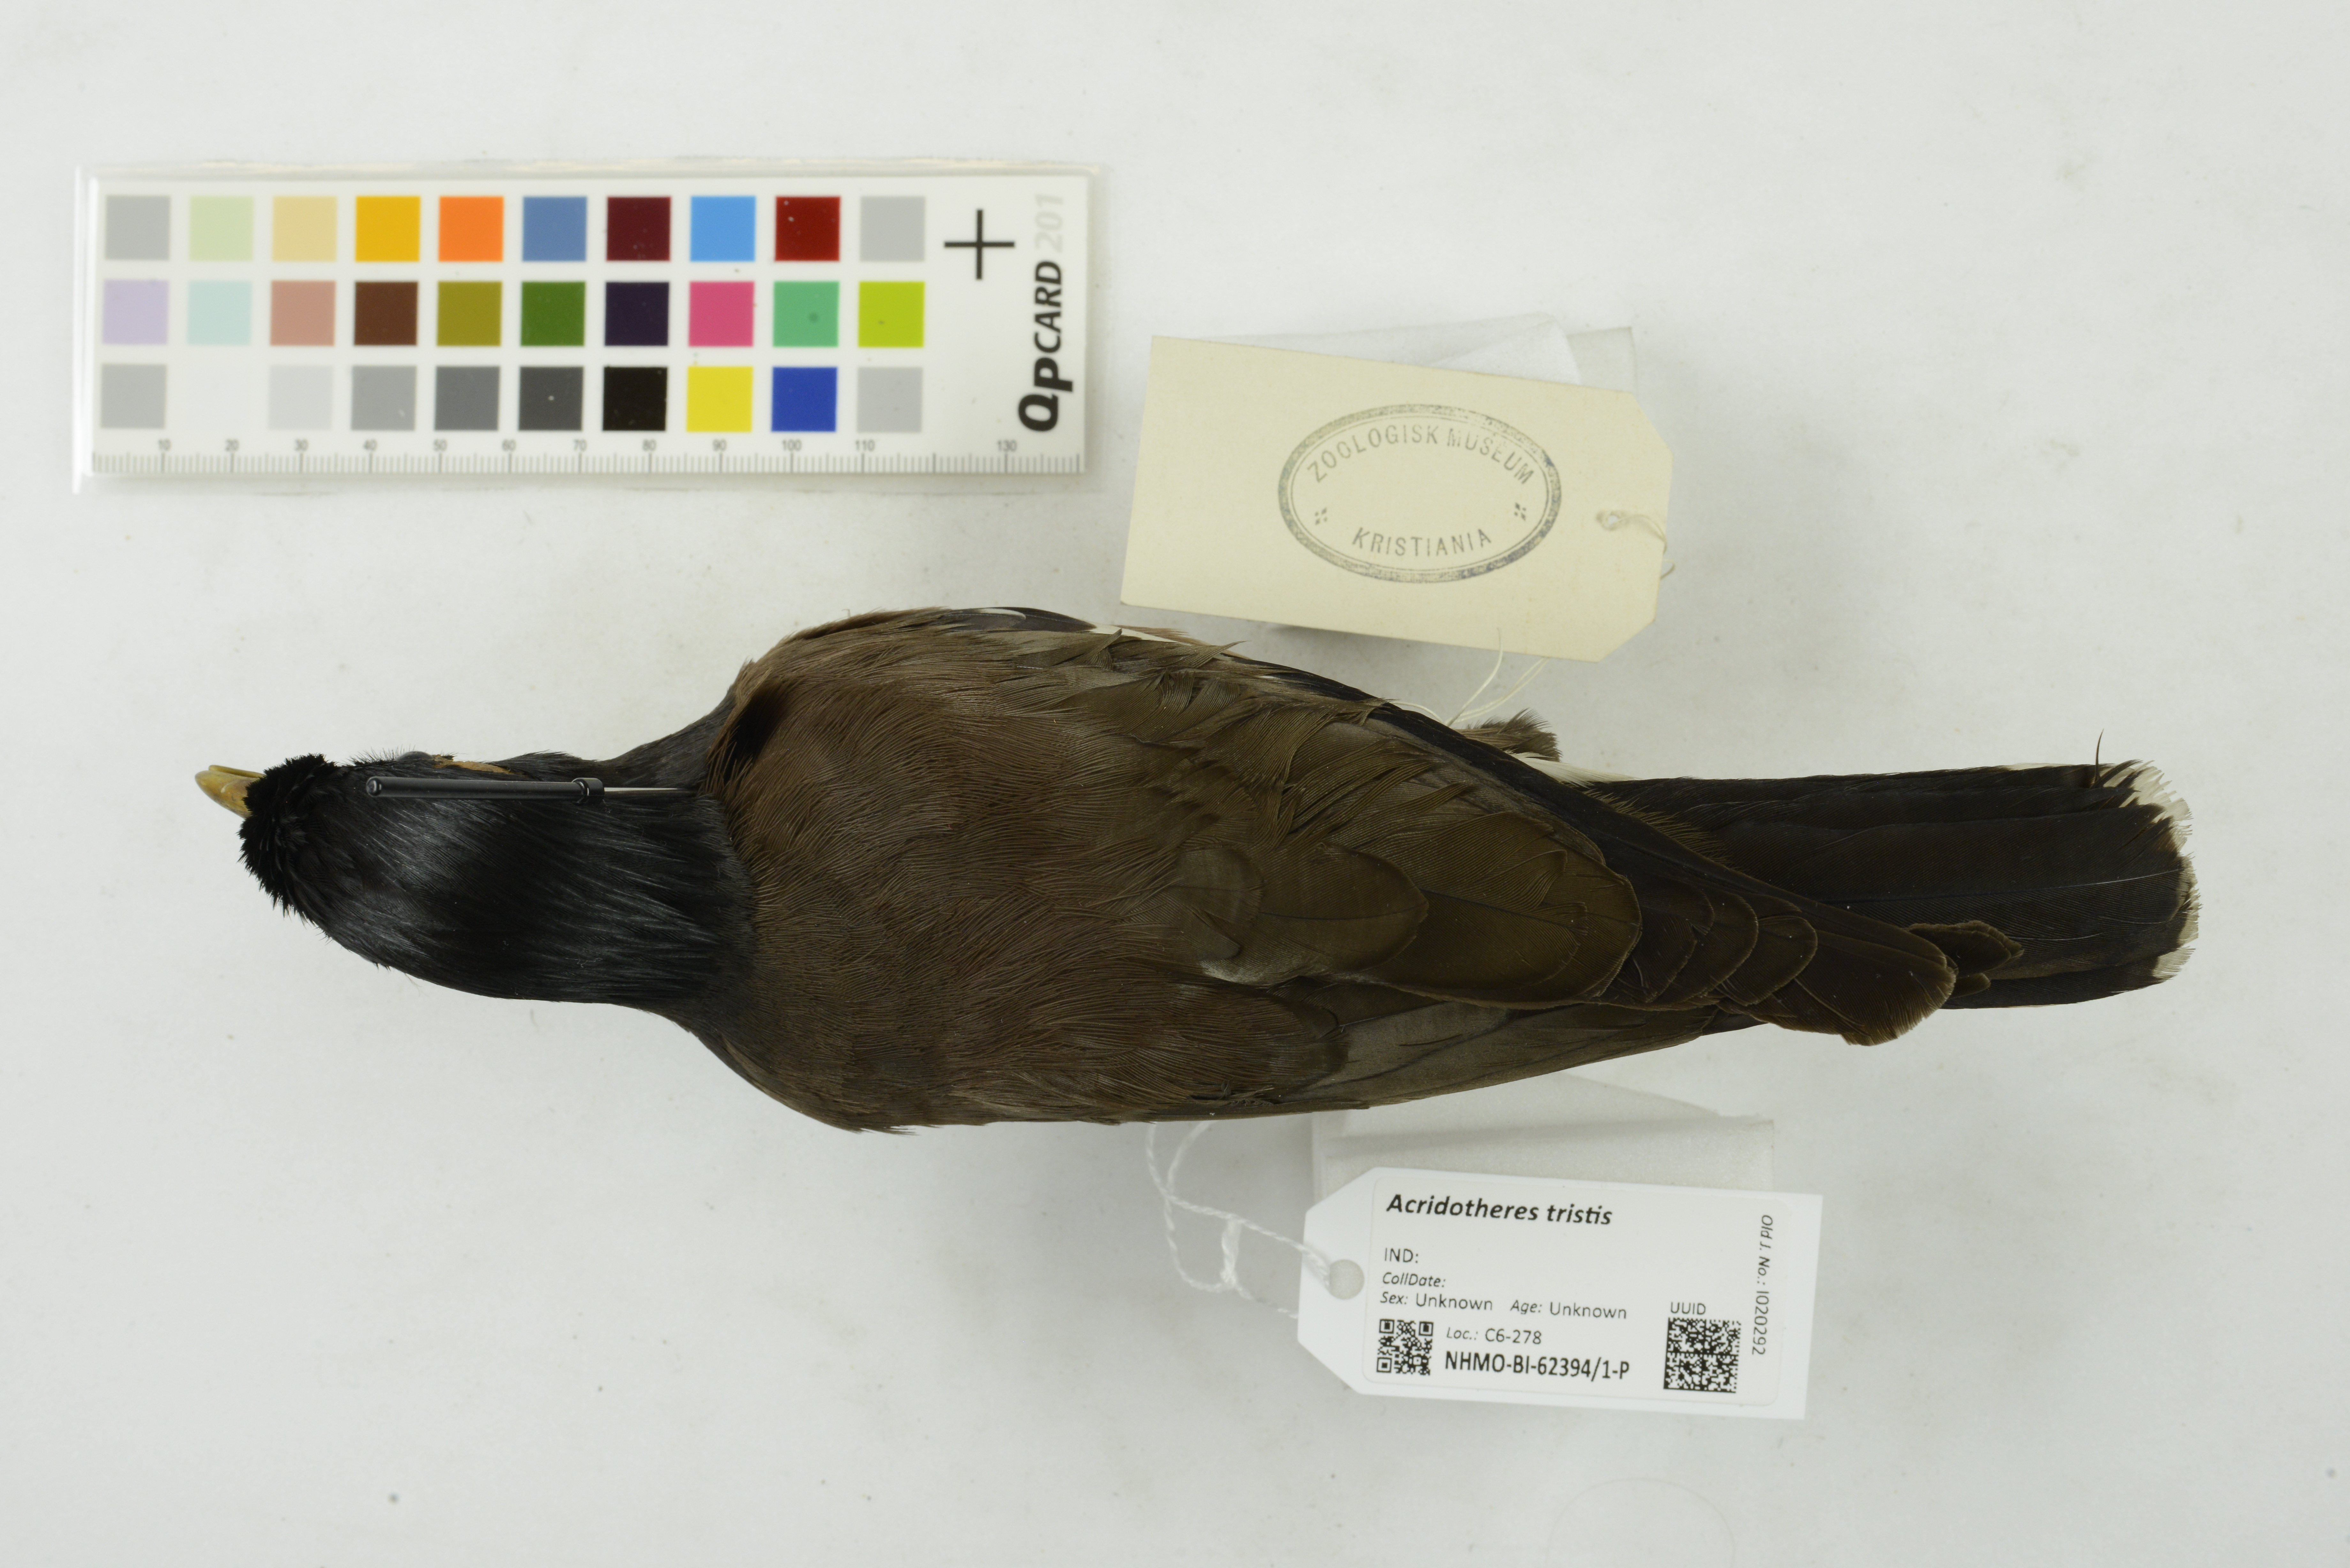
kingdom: Animalia
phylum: Chordata
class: Aves
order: Passeriformes
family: Sturnidae
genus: Acridotheres
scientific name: Acridotheres tristis
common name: Common myna
